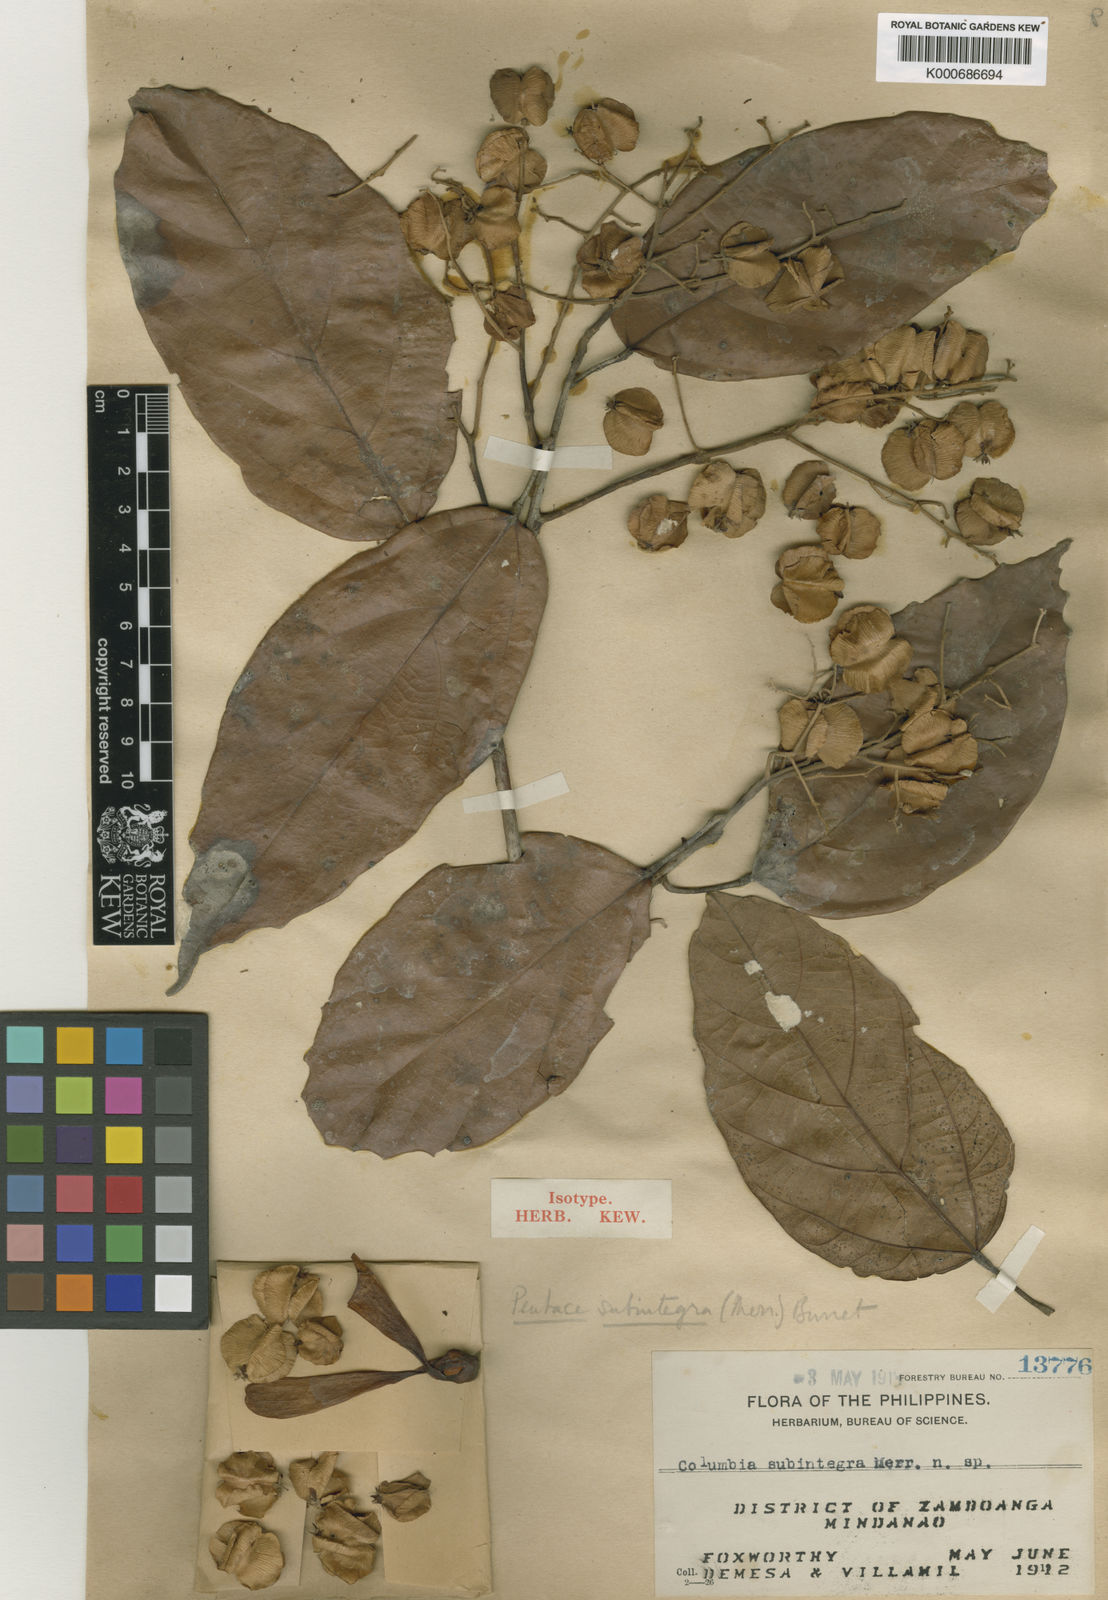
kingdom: Plantae
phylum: Tracheophyta
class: Magnoliopsida
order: Malvales
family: Malvaceae
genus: Pentace
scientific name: Pentace subintegra
